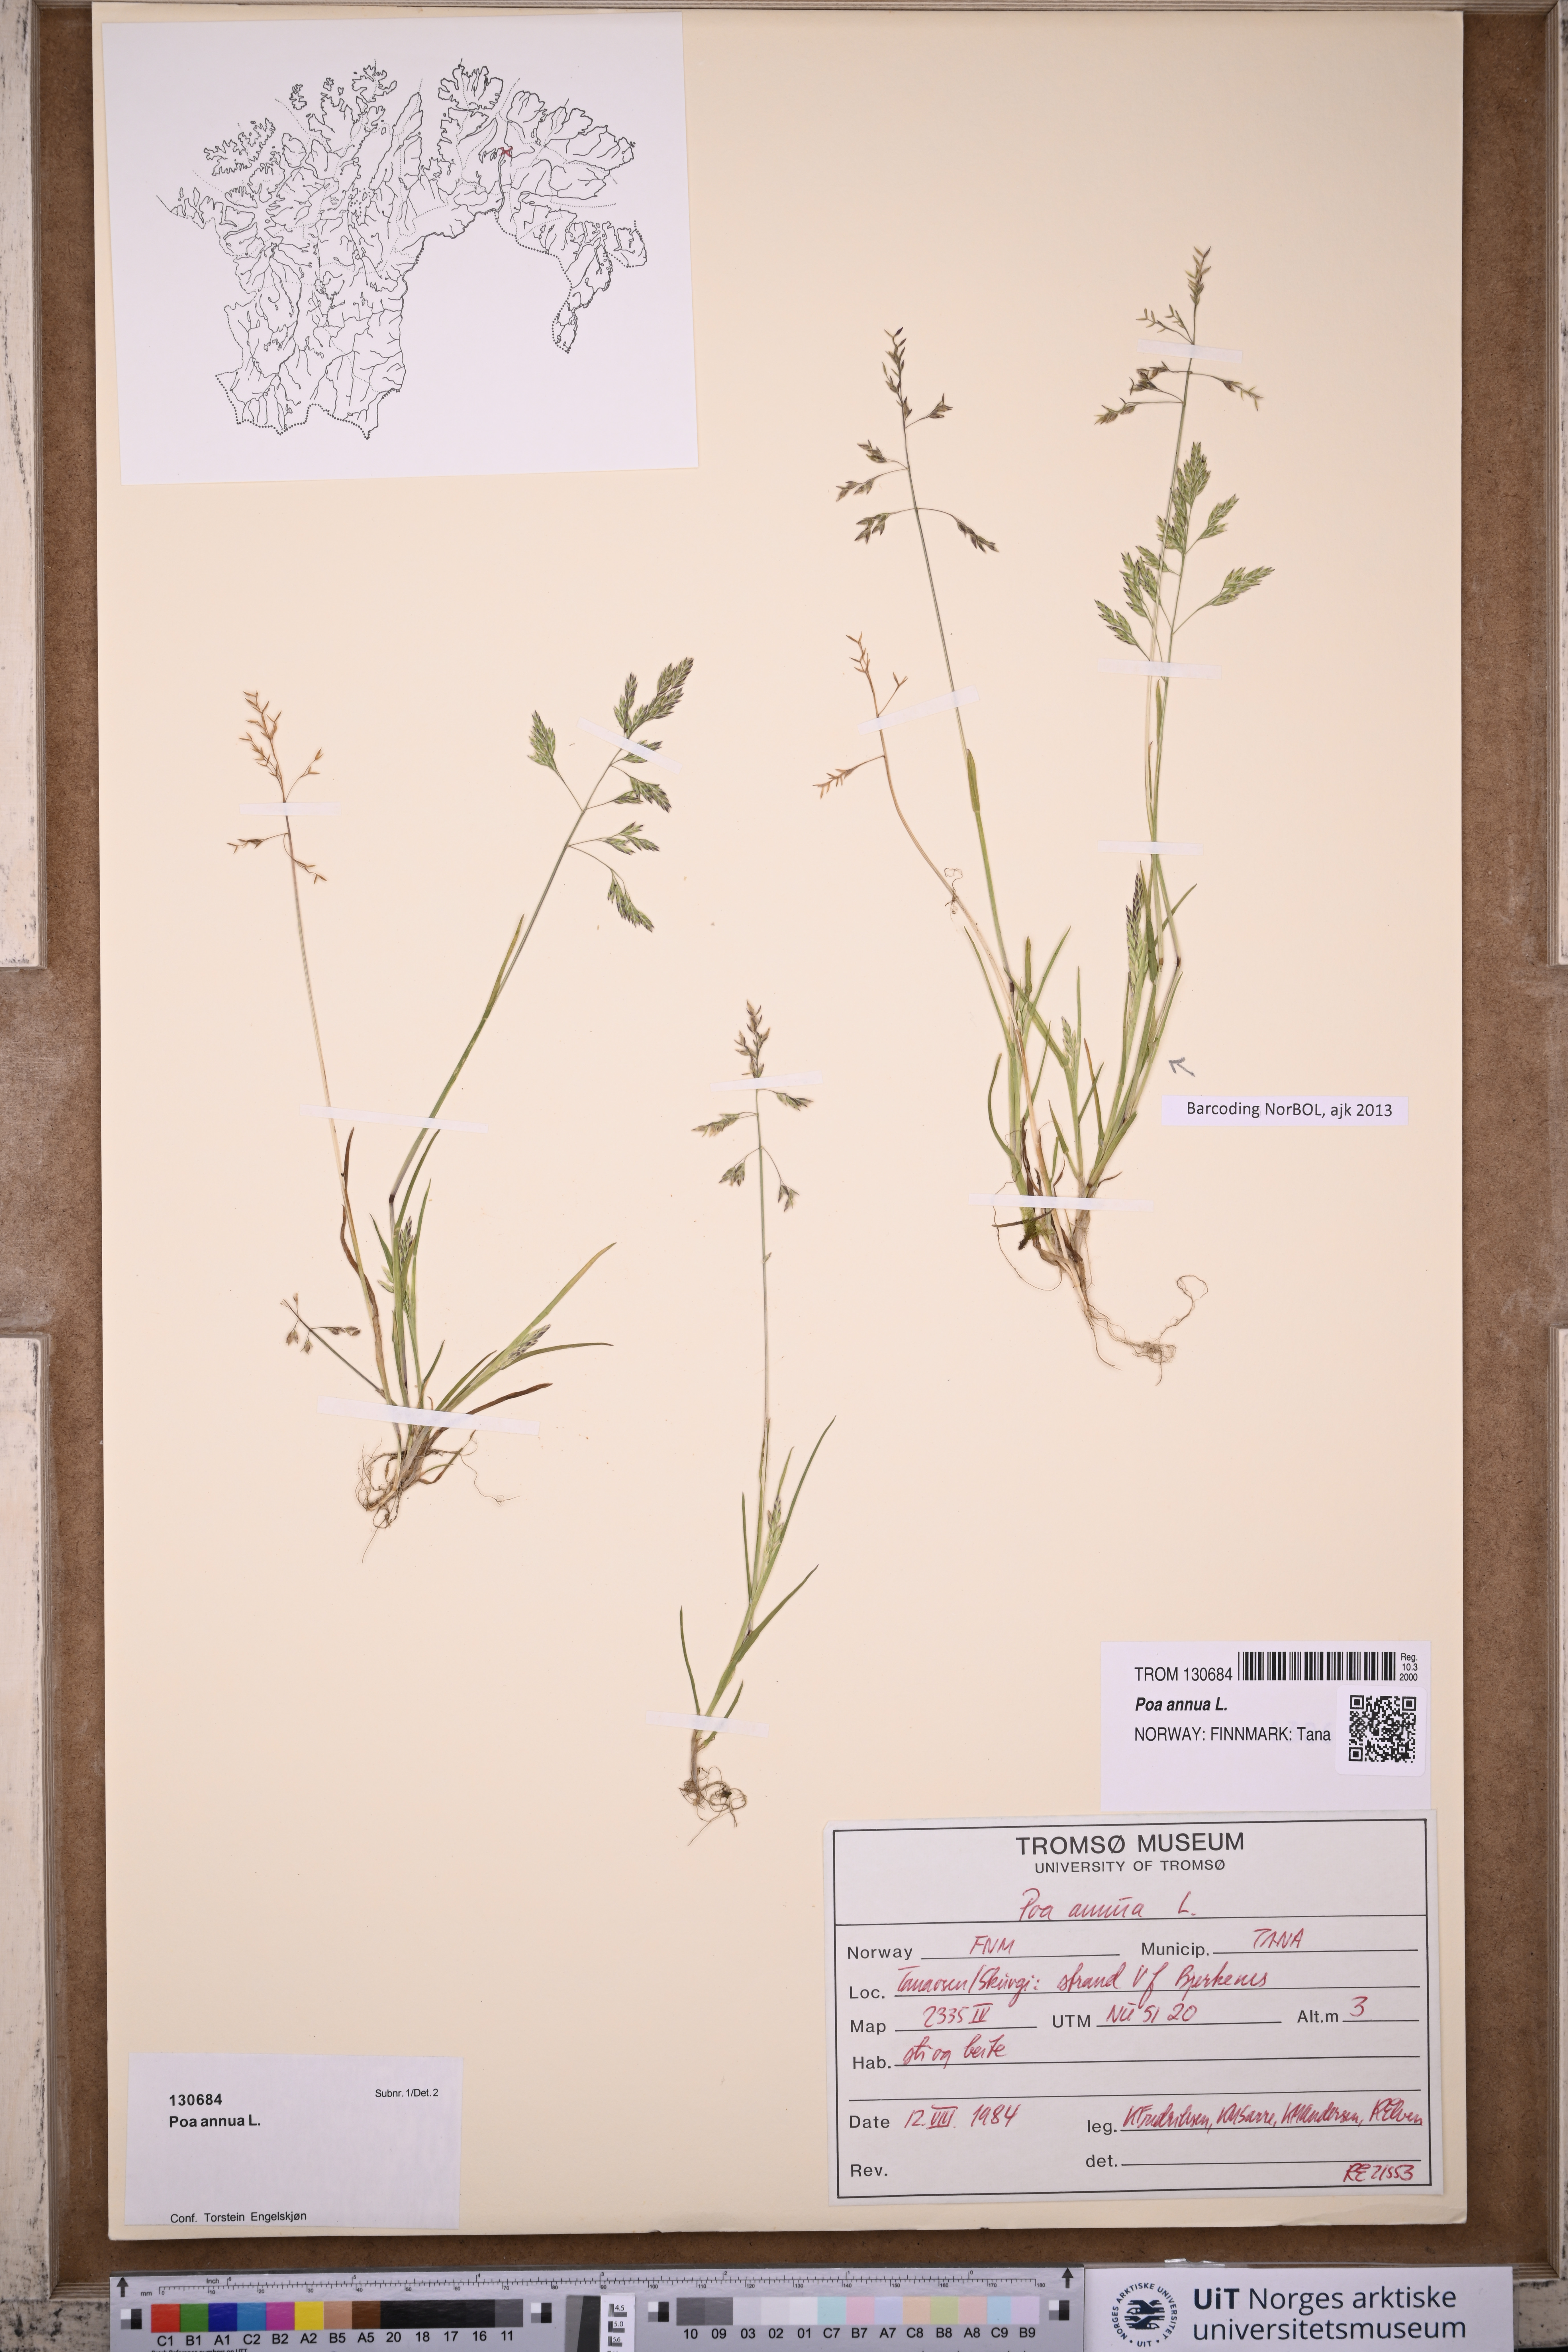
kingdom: Plantae
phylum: Tracheophyta
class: Liliopsida
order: Poales
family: Poaceae
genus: Poa
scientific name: Poa annua
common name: Annual bluegrass
